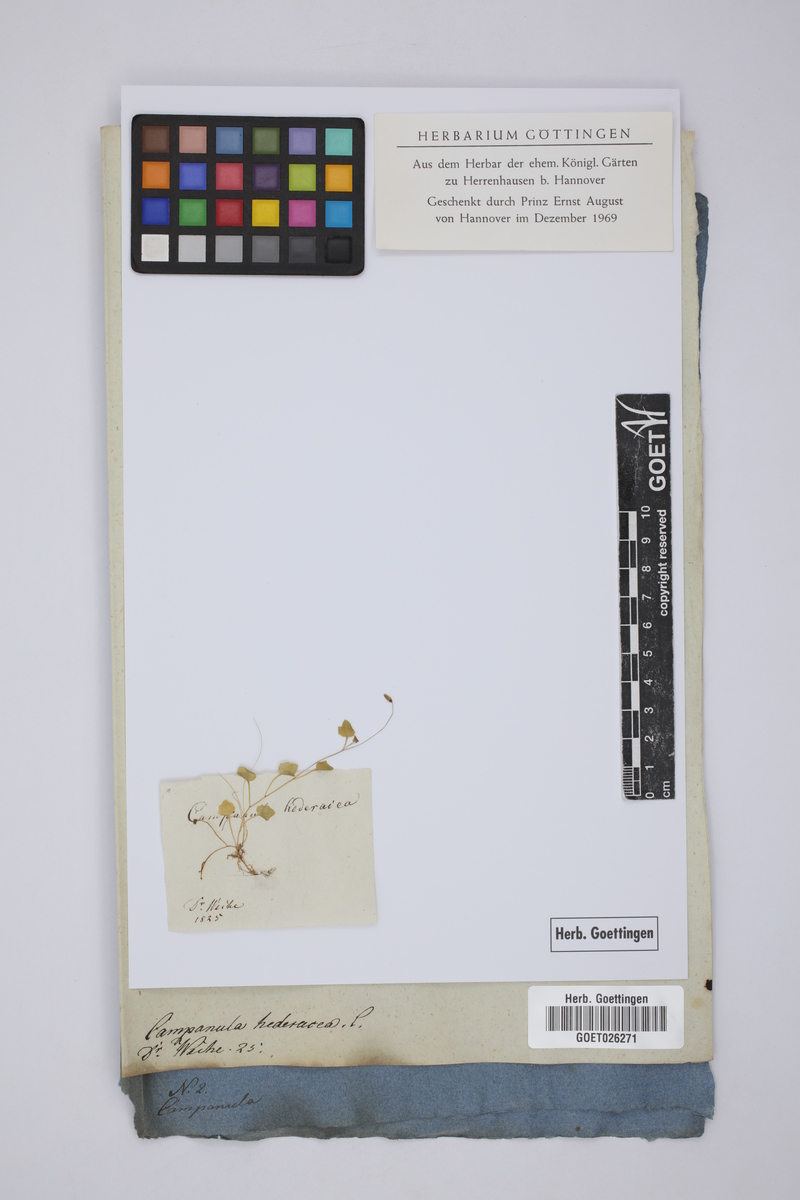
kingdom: Plantae
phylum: Tracheophyta
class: Magnoliopsida
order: Asterales
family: Campanulaceae
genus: Hesperocodon
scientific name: Hesperocodon hederaceus
